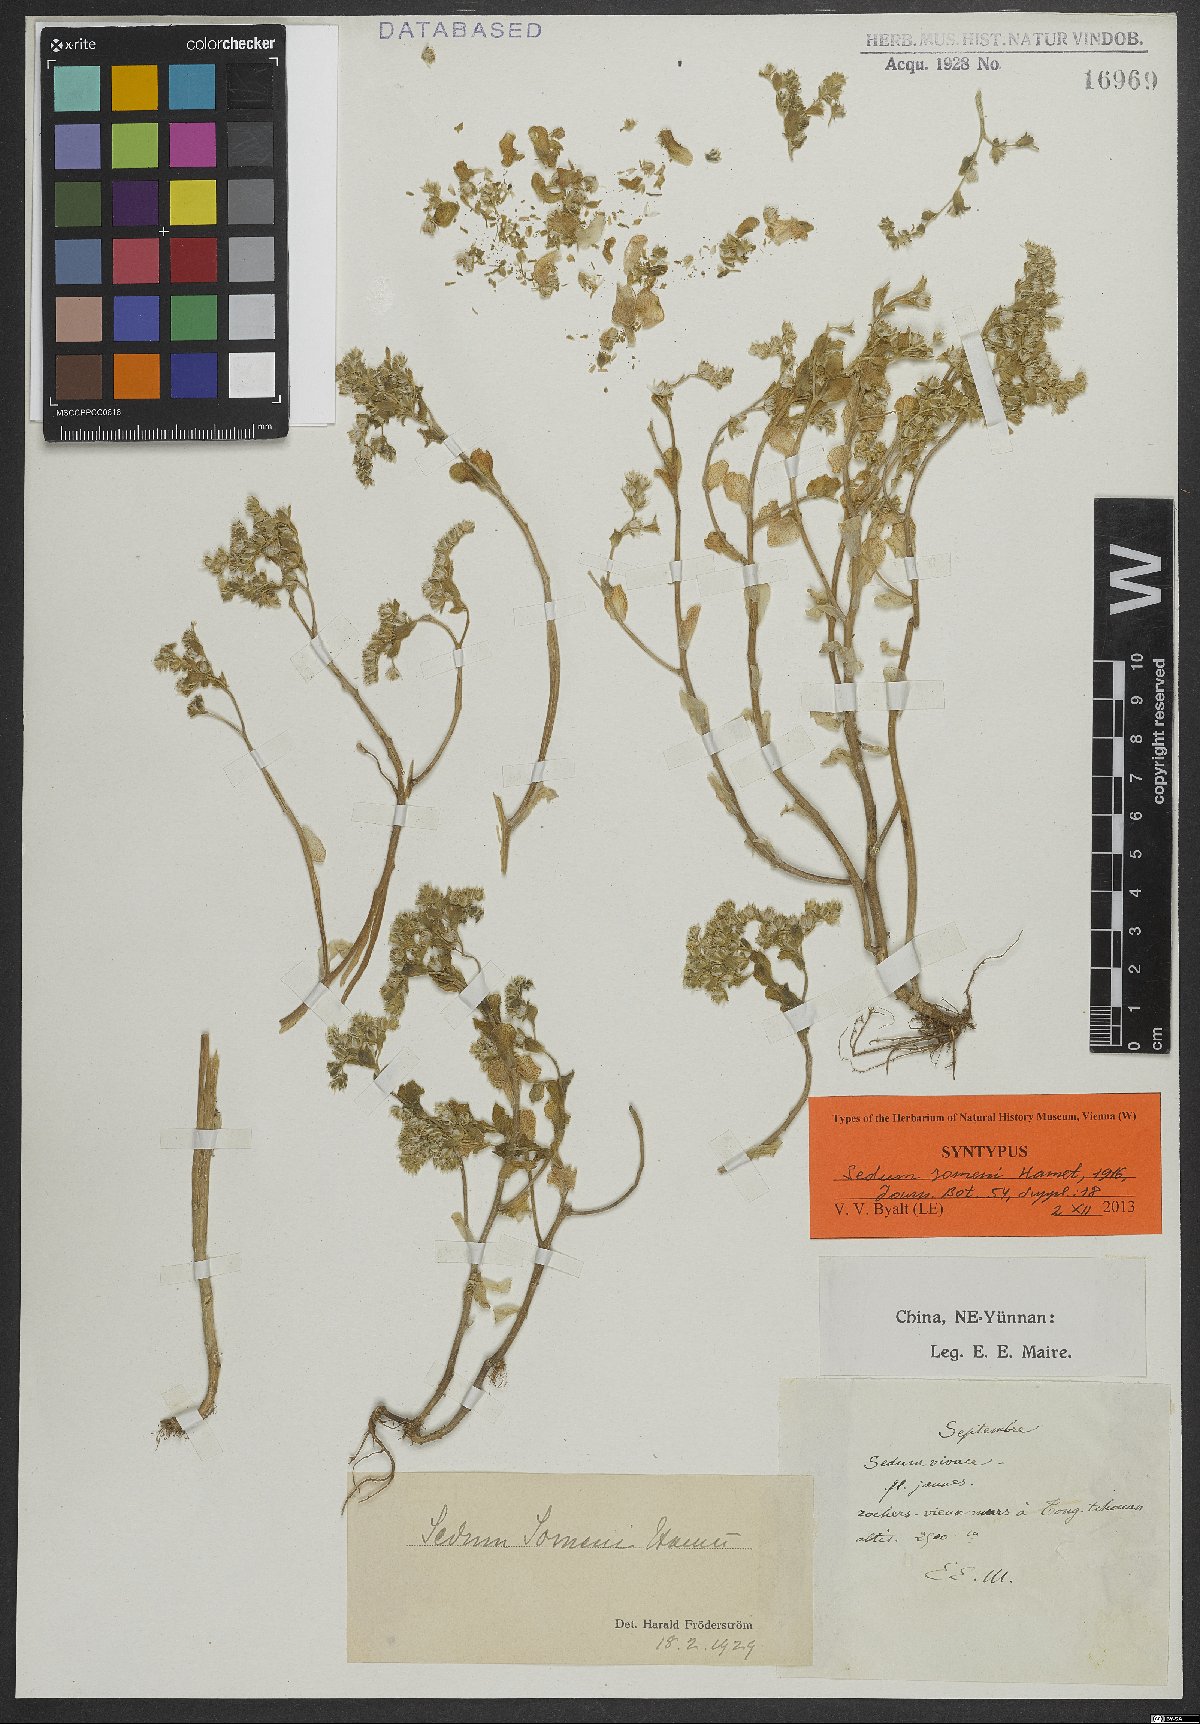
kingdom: Plantae
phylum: Tracheophyta
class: Magnoliopsida
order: Saxifragales
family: Crassulaceae
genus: Sedum
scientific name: Sedum somenii
